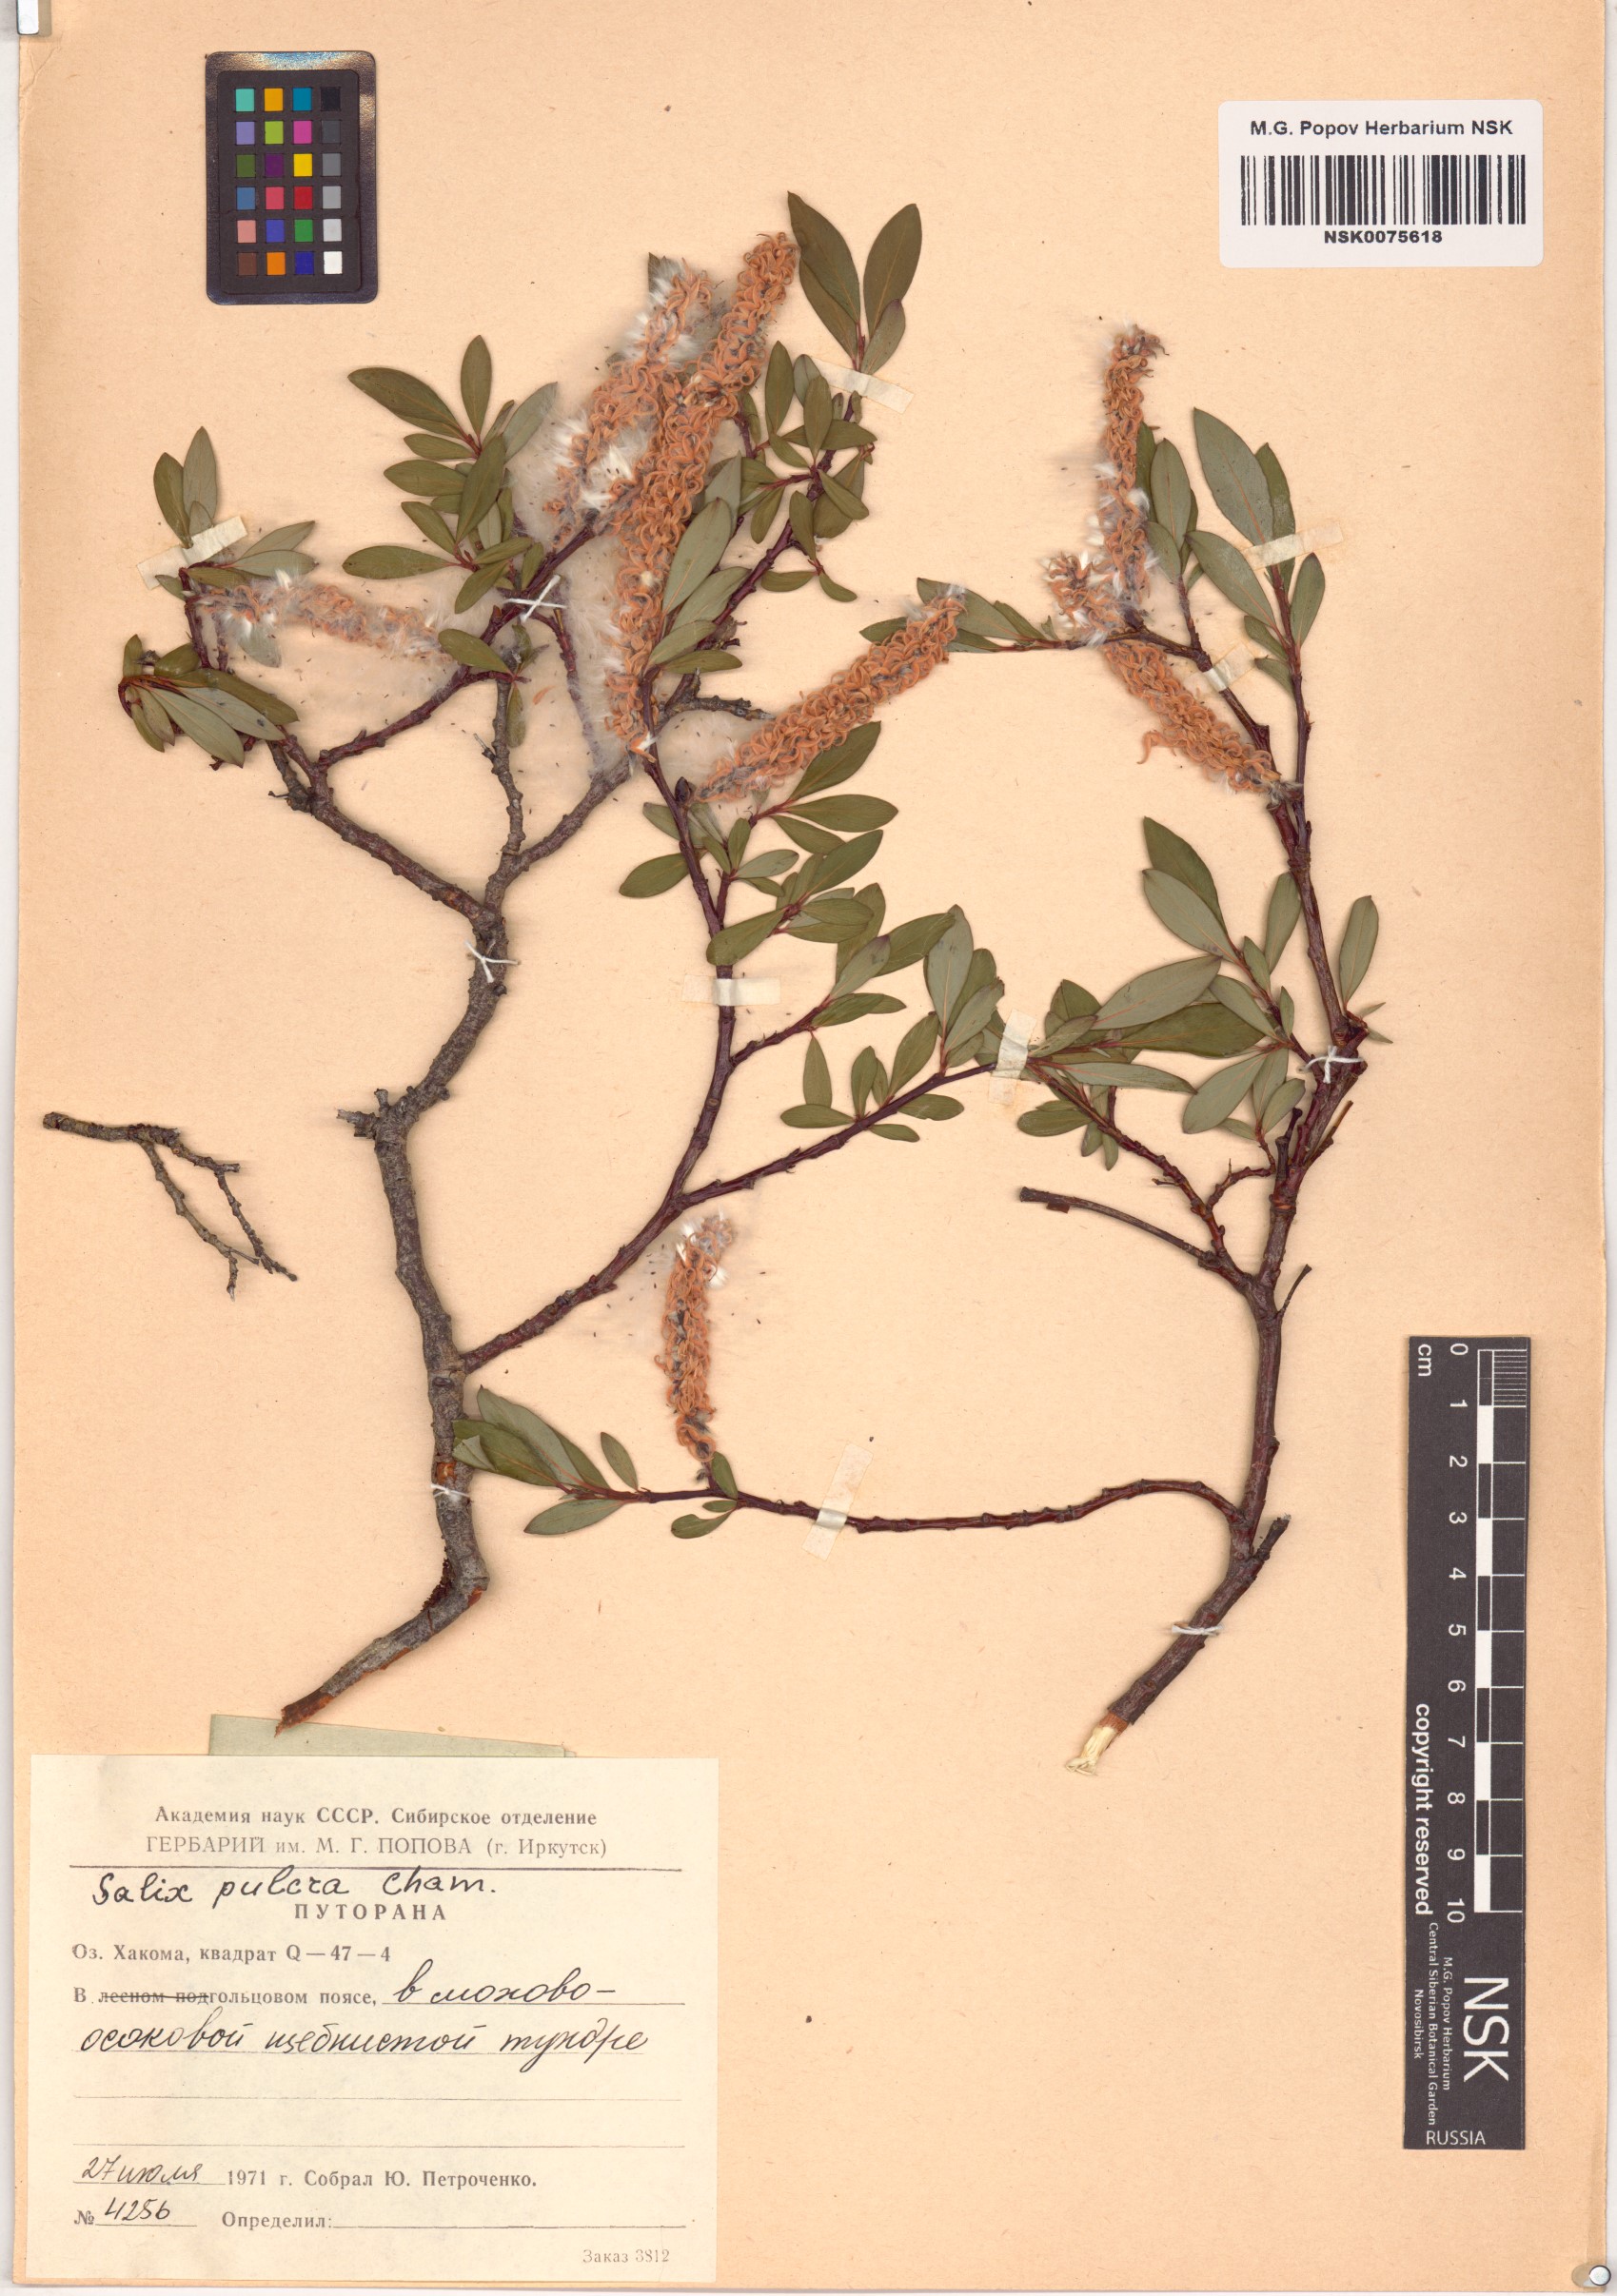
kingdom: Plantae
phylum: Tracheophyta
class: Magnoliopsida
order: Malpighiales
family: Salicaceae
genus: Salix
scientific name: Salix pulchra
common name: Diamond-leaved willow
